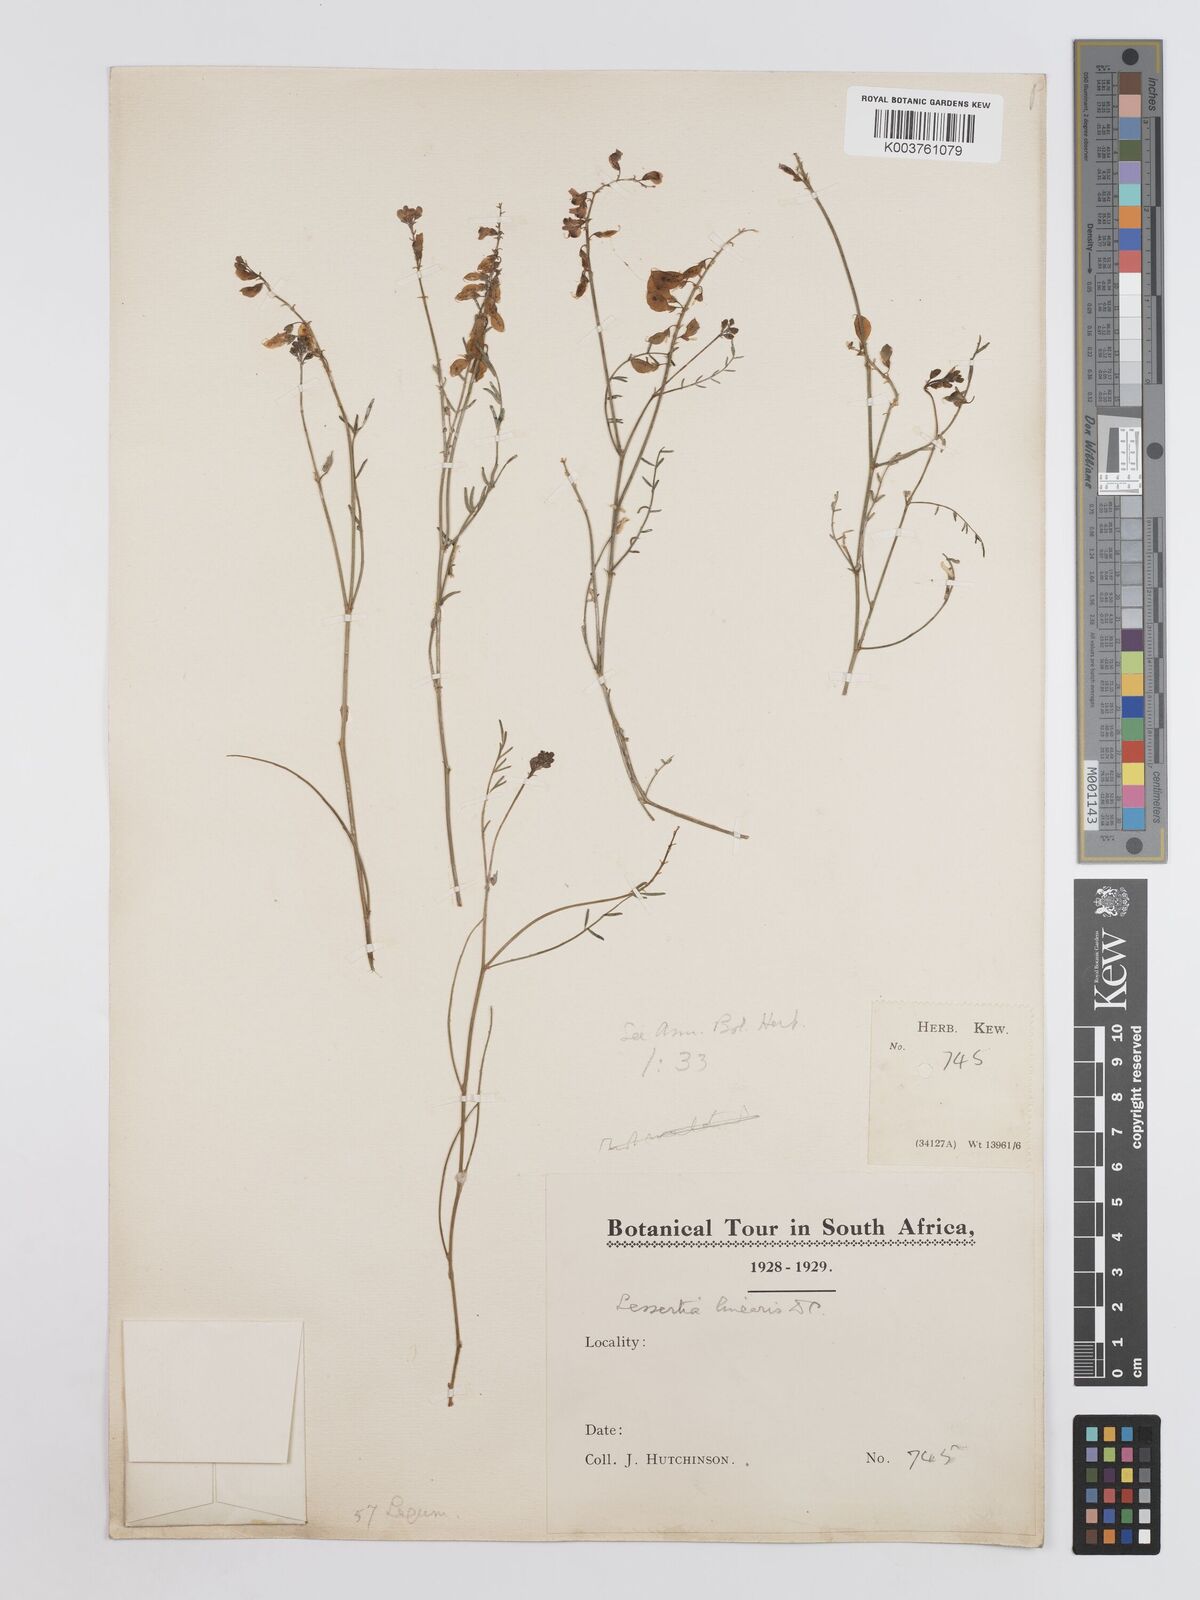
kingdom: Plantae
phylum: Tracheophyta
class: Magnoliopsida
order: Fabales
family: Fabaceae
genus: Lessertia
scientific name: Lessertia herbacea
